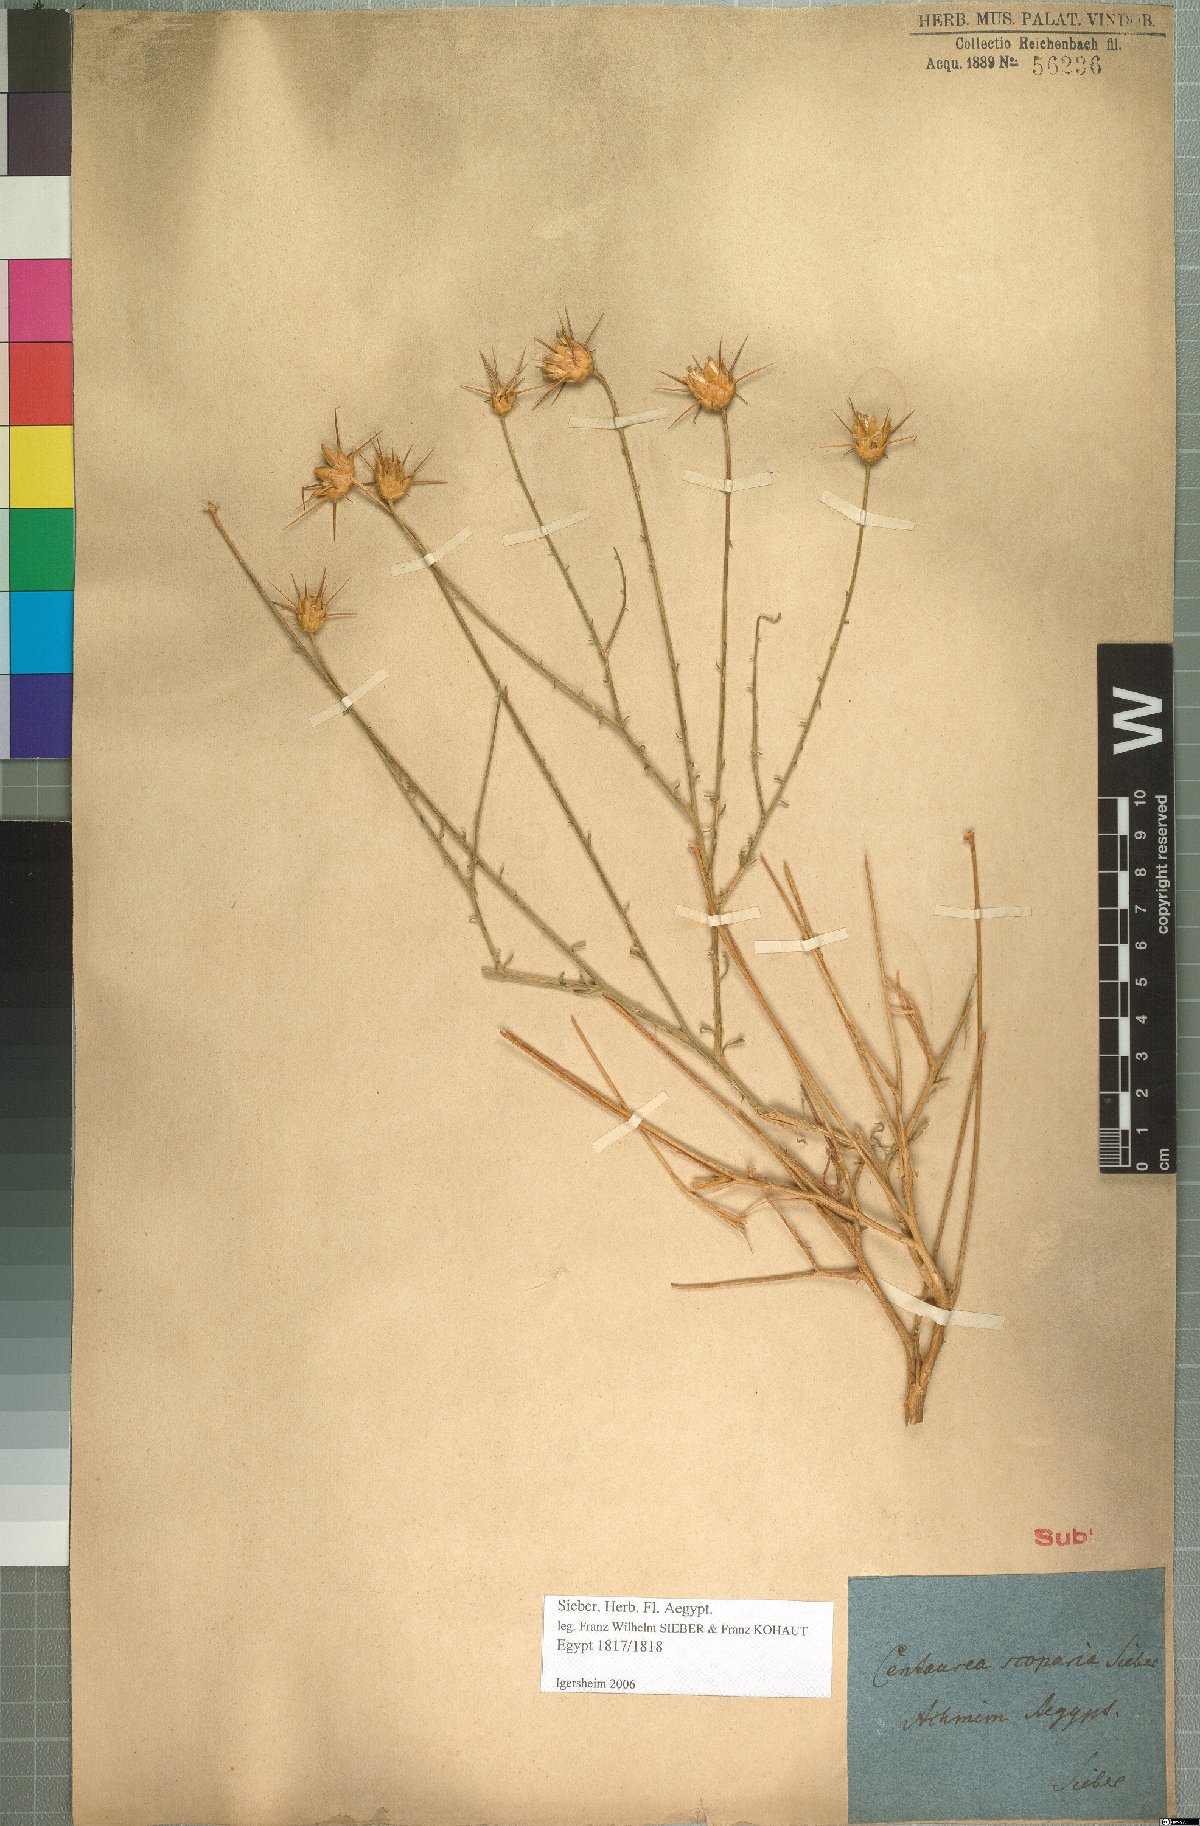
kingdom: Plantae
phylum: Tracheophyta
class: Magnoliopsida
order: Asterales
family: Asteraceae
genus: Centaurea
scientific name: Centaurea scoparia
